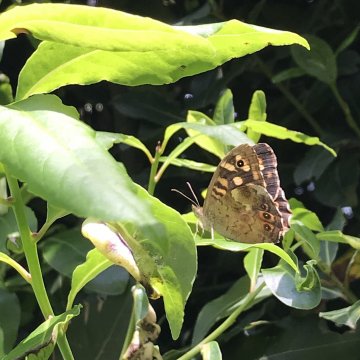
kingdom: Animalia
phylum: Arthropoda
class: Insecta
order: Lepidoptera
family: Nymphalidae
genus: Pararge
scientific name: Pararge aegeria
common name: Speckled Wood Butterfly
